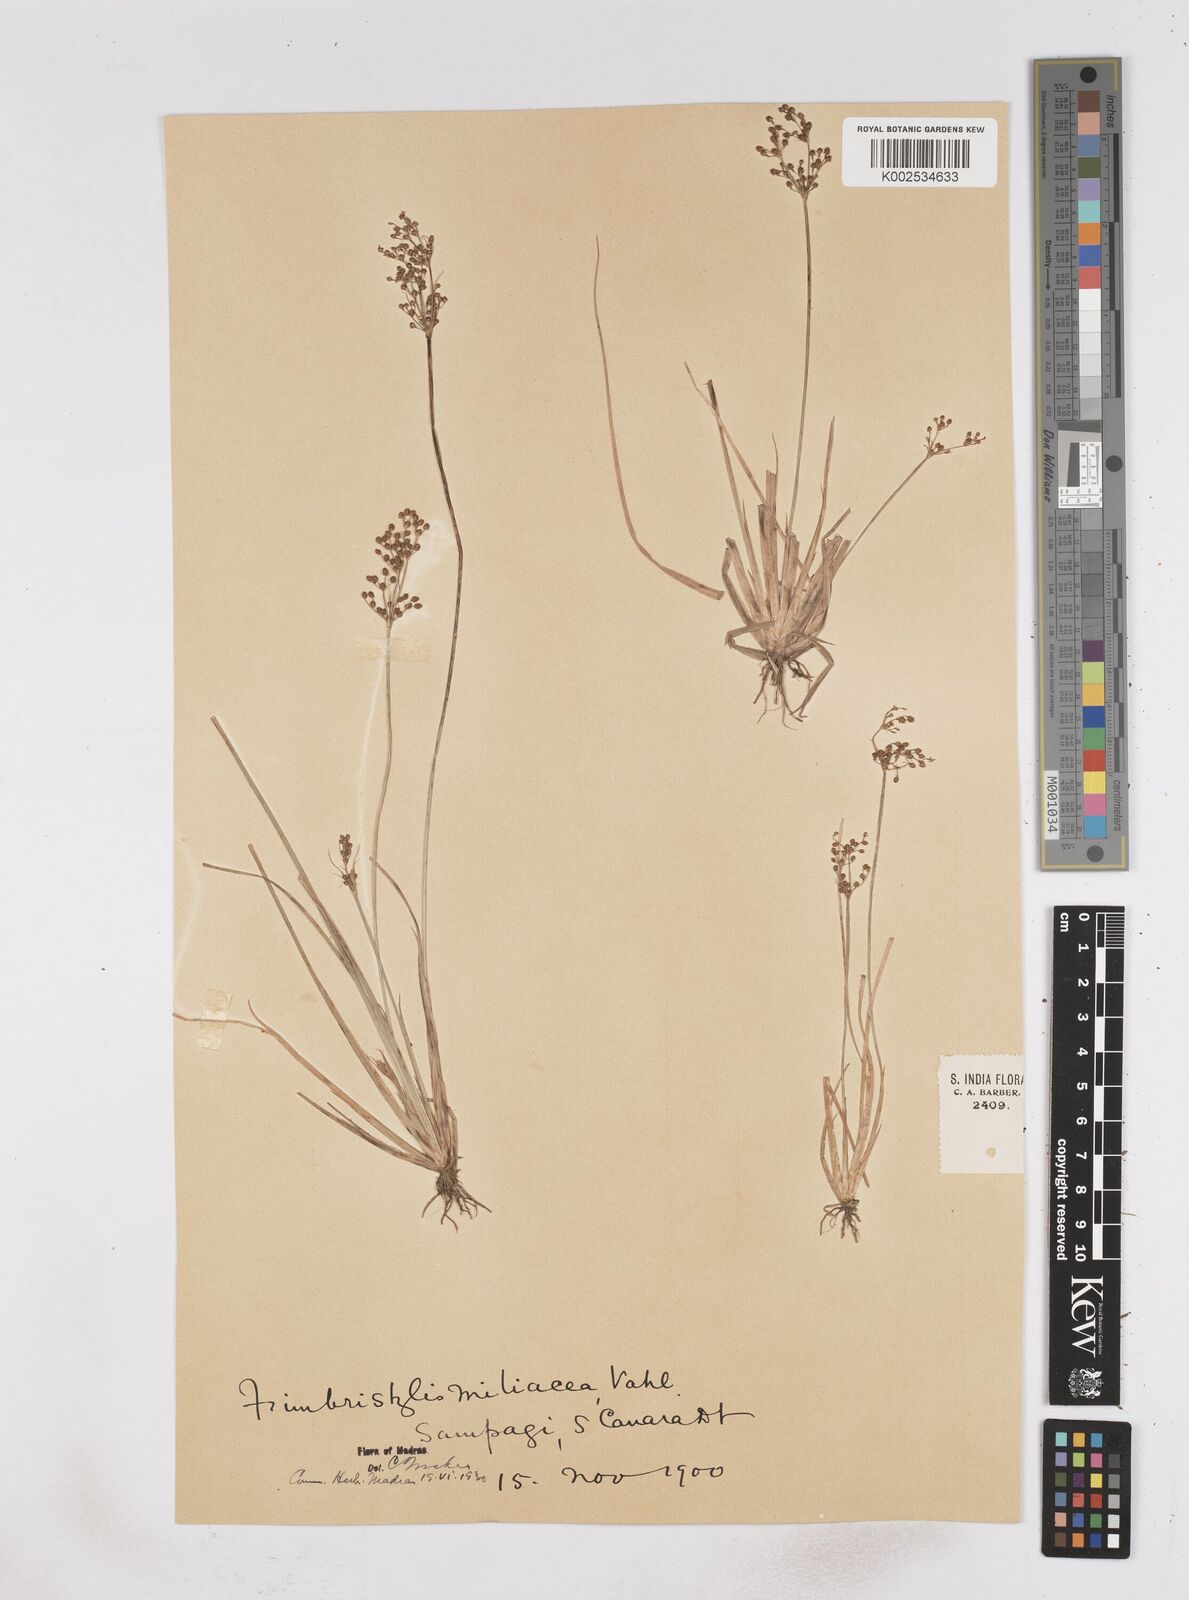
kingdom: Plantae
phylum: Tracheophyta
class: Liliopsida
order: Poales
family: Cyperaceae
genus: Fimbristylis
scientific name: Fimbristylis littoralis
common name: Fimbry
